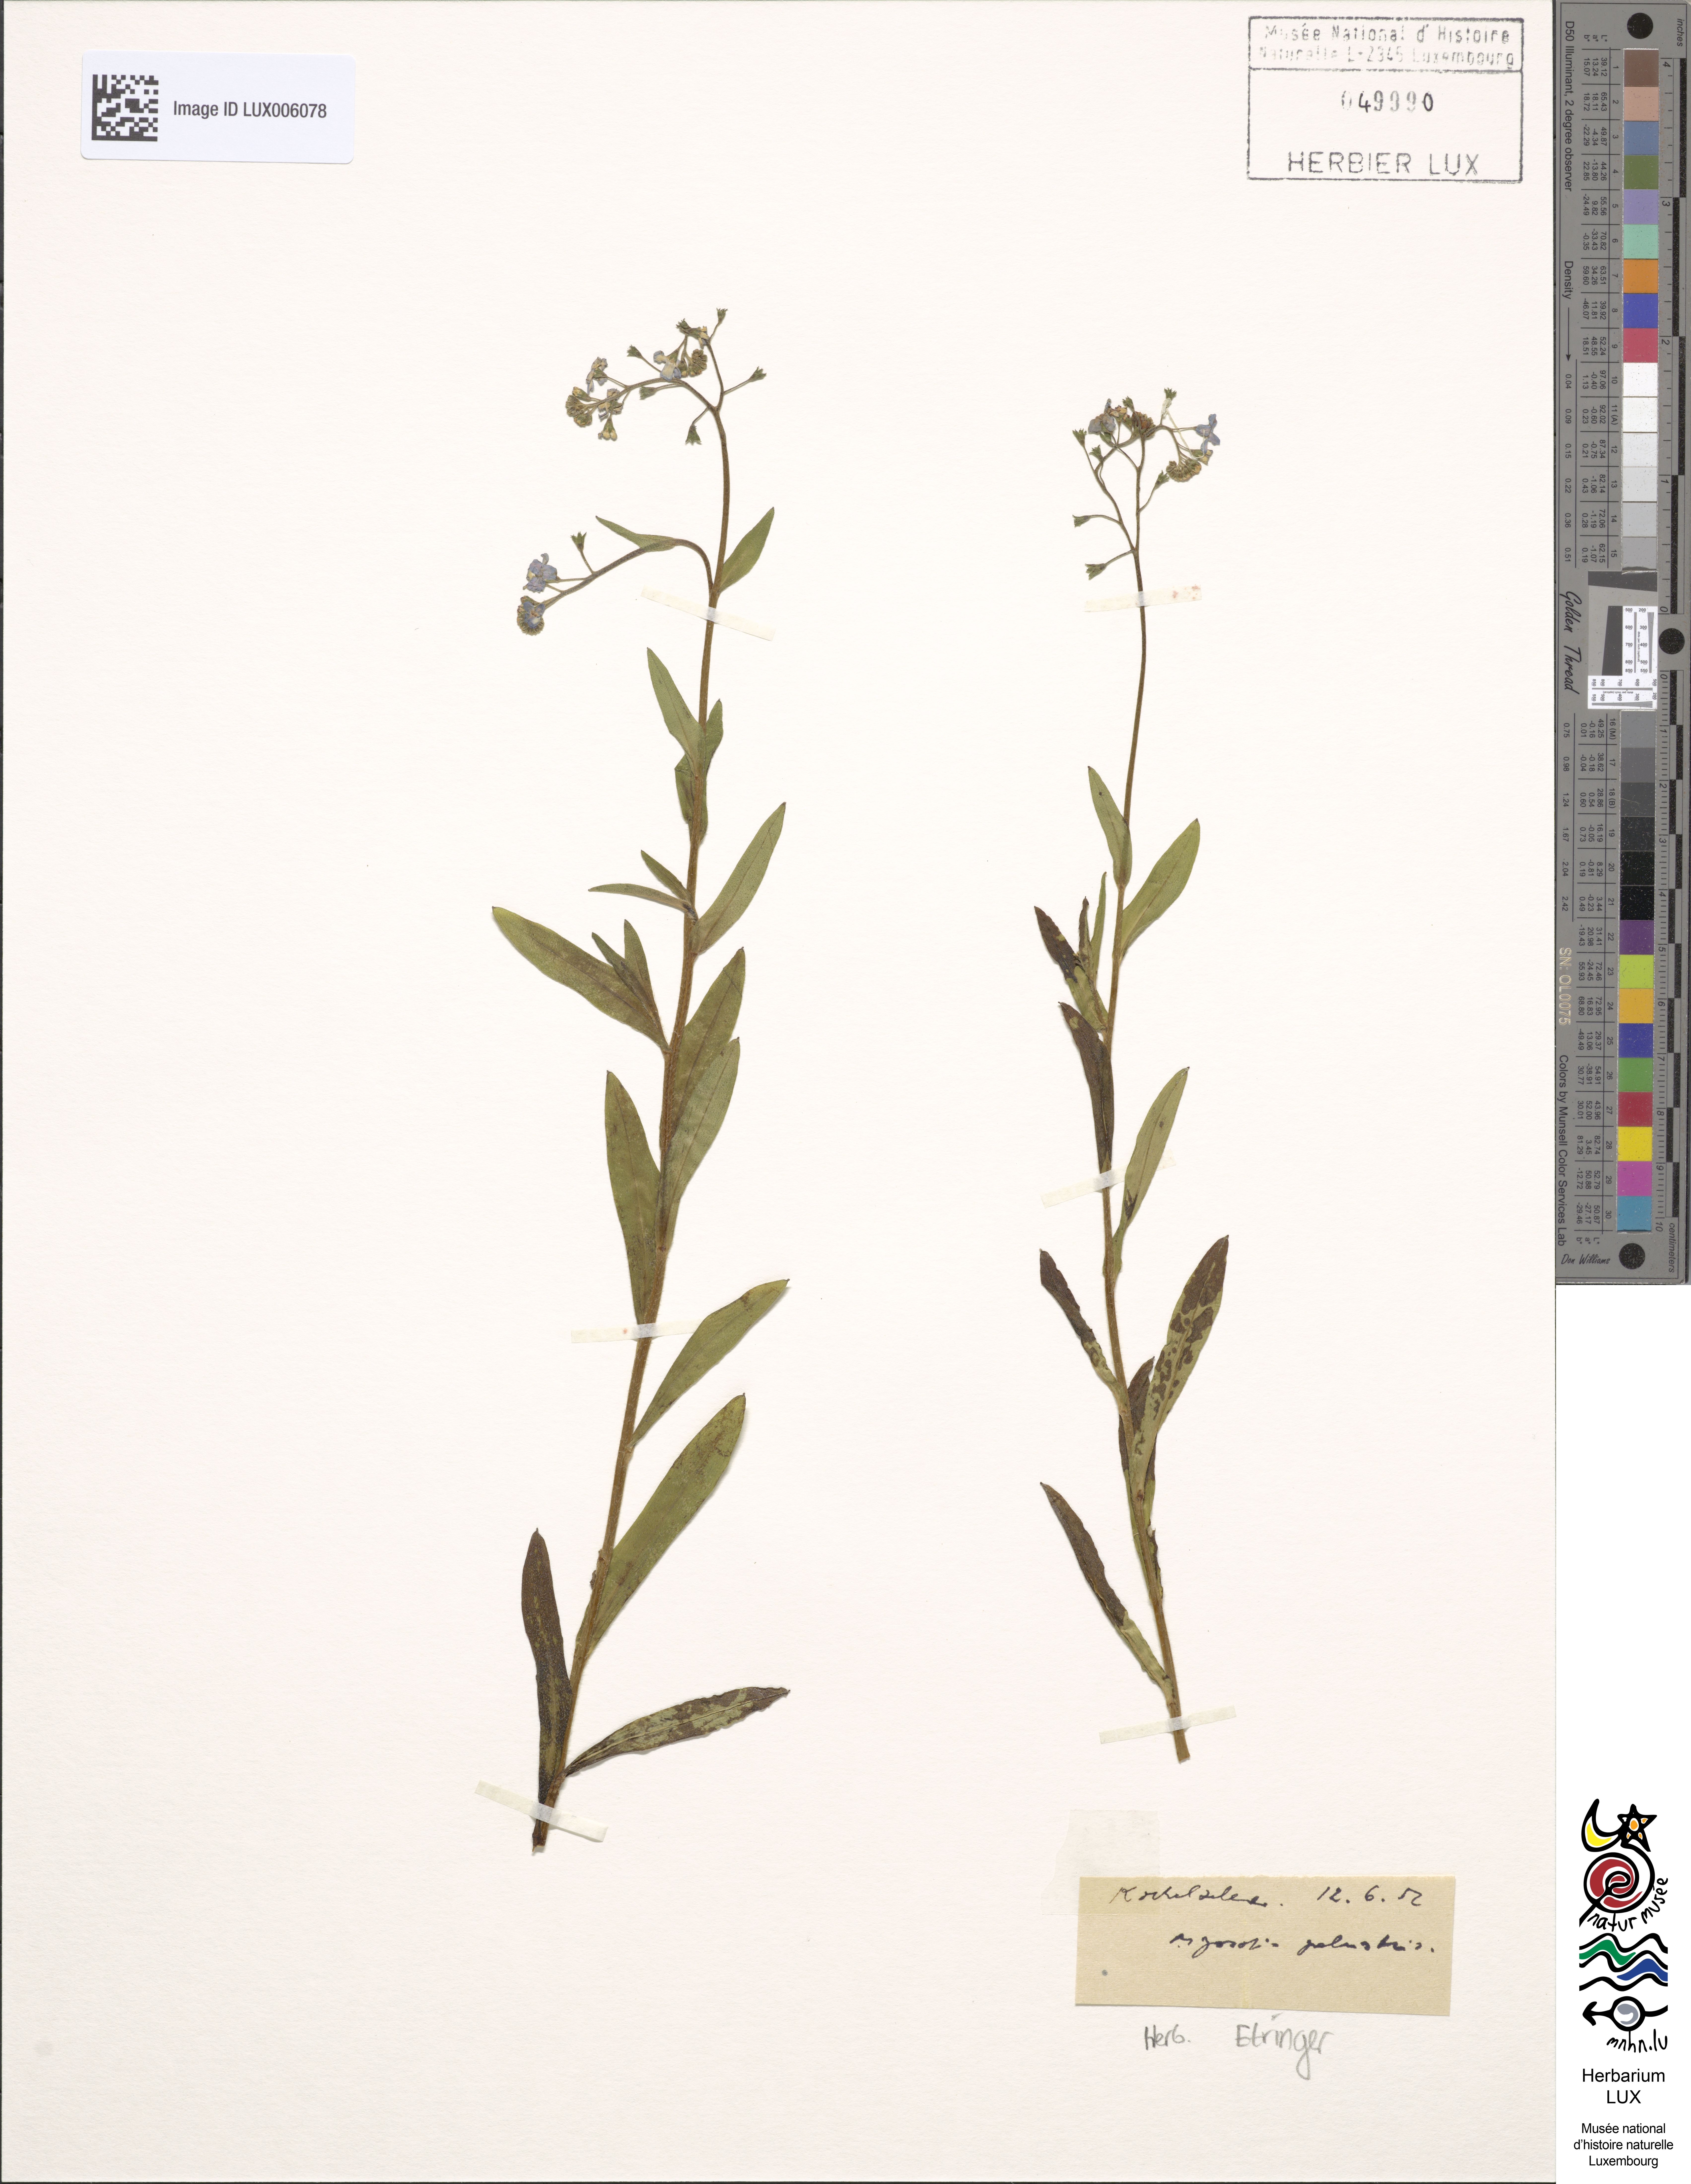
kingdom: Plantae
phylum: Tracheophyta
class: Magnoliopsida
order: Boraginales
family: Boraginaceae
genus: Myosotis
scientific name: Myosotis scorpioides
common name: Water forget-me-not
